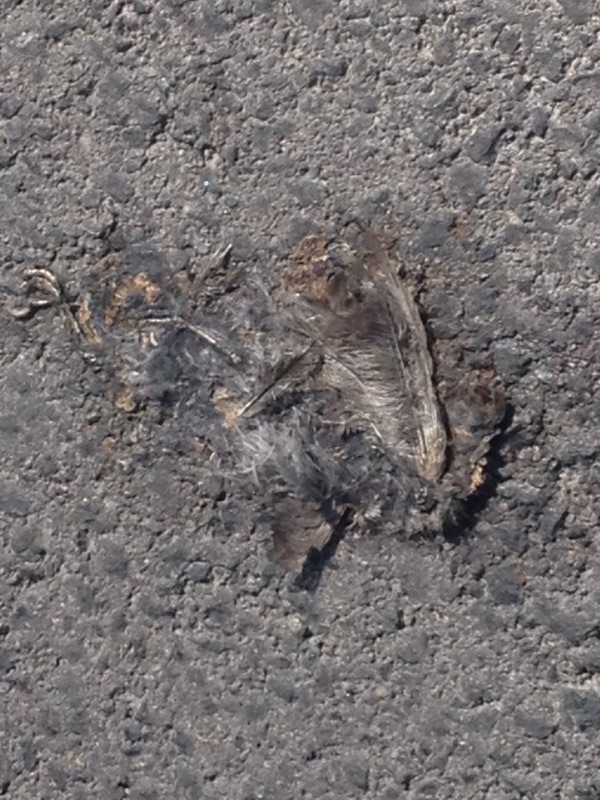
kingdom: Animalia
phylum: Chordata
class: Aves
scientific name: Aves
